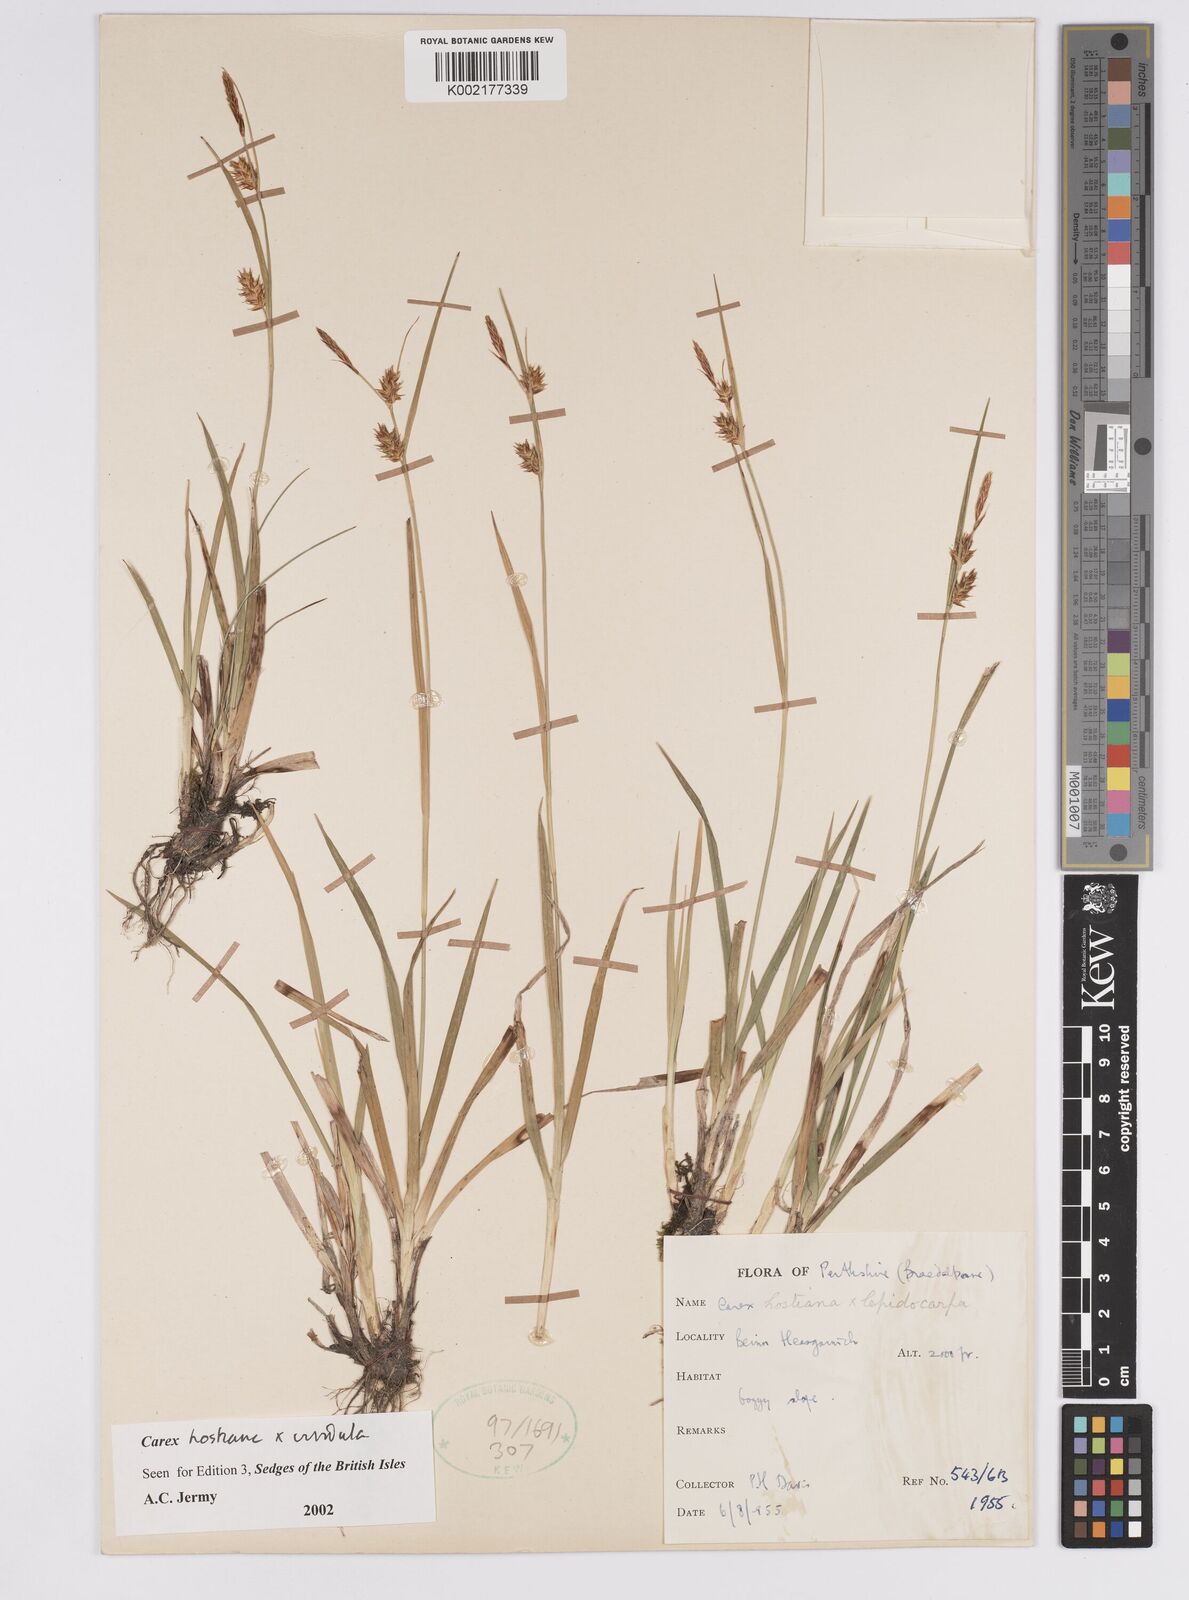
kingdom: Plantae
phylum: Tracheophyta
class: Liliopsida
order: Poales
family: Cyperaceae
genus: Carex
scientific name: Carex hostiana
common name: Tawny sedge
